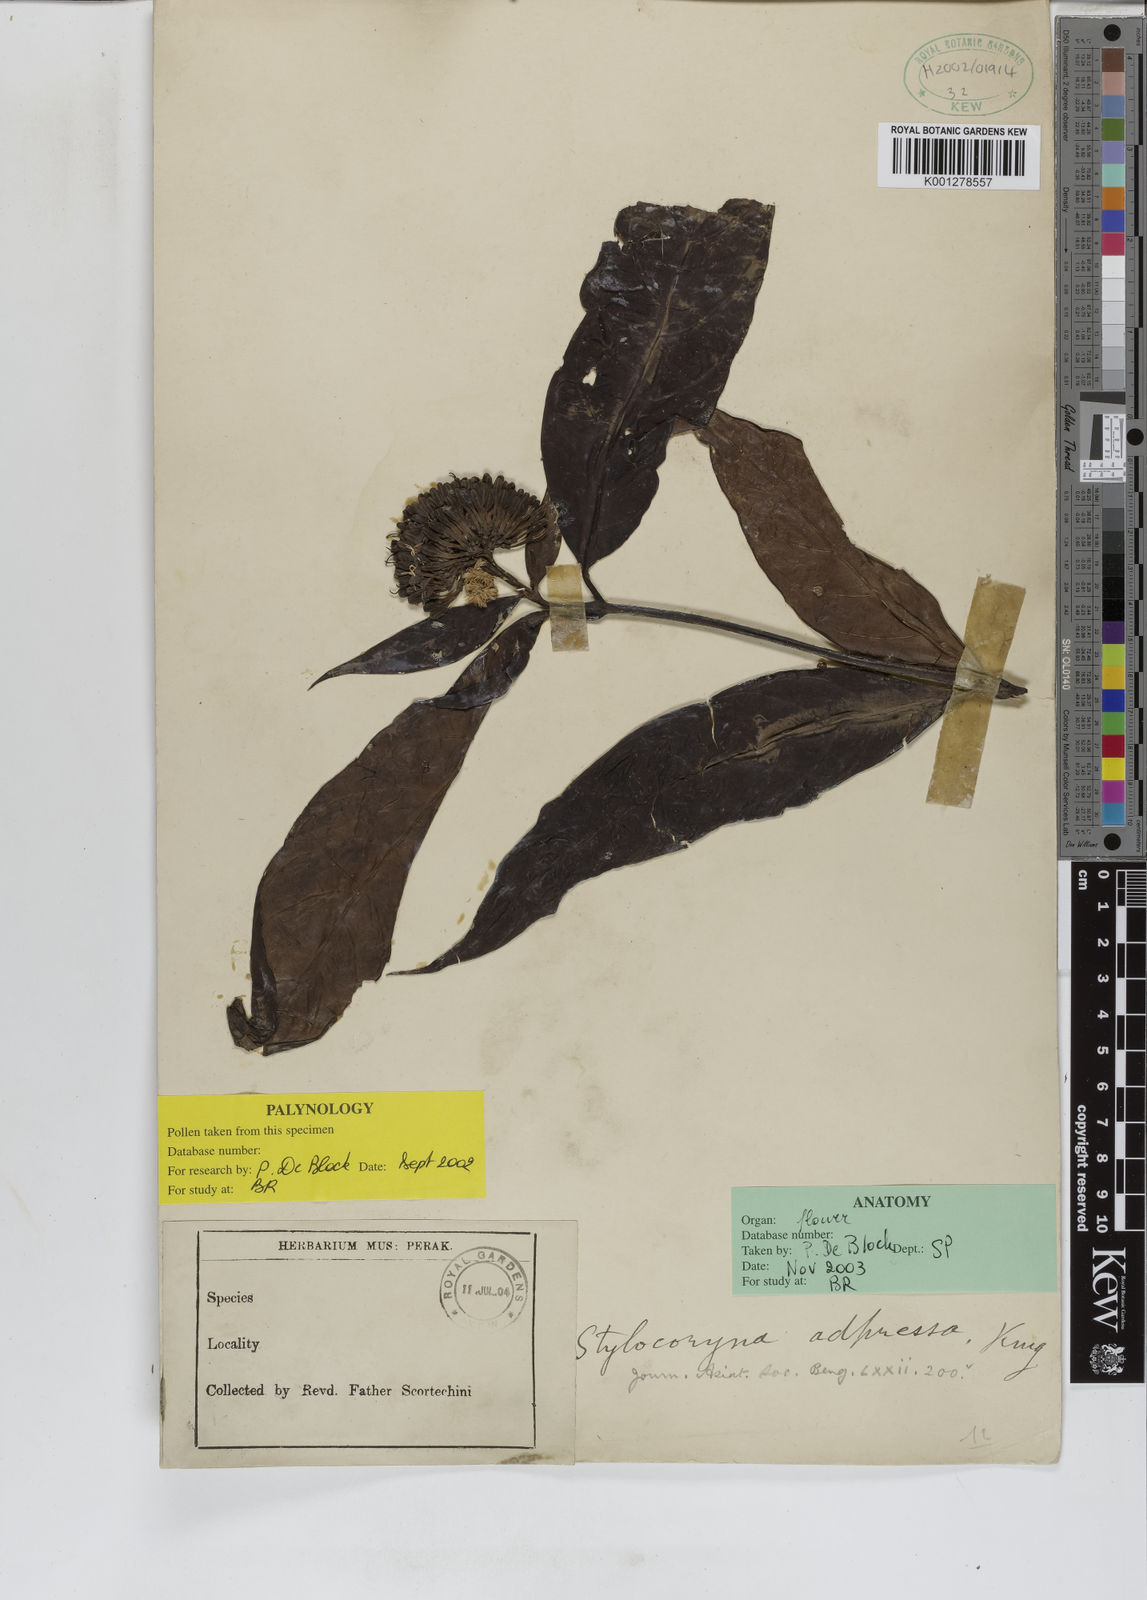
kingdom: Plantae
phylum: Tracheophyta
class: Magnoliopsida
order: Gentianales
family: Rubiaceae
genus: Tarenna
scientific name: Tarenna adpressa
